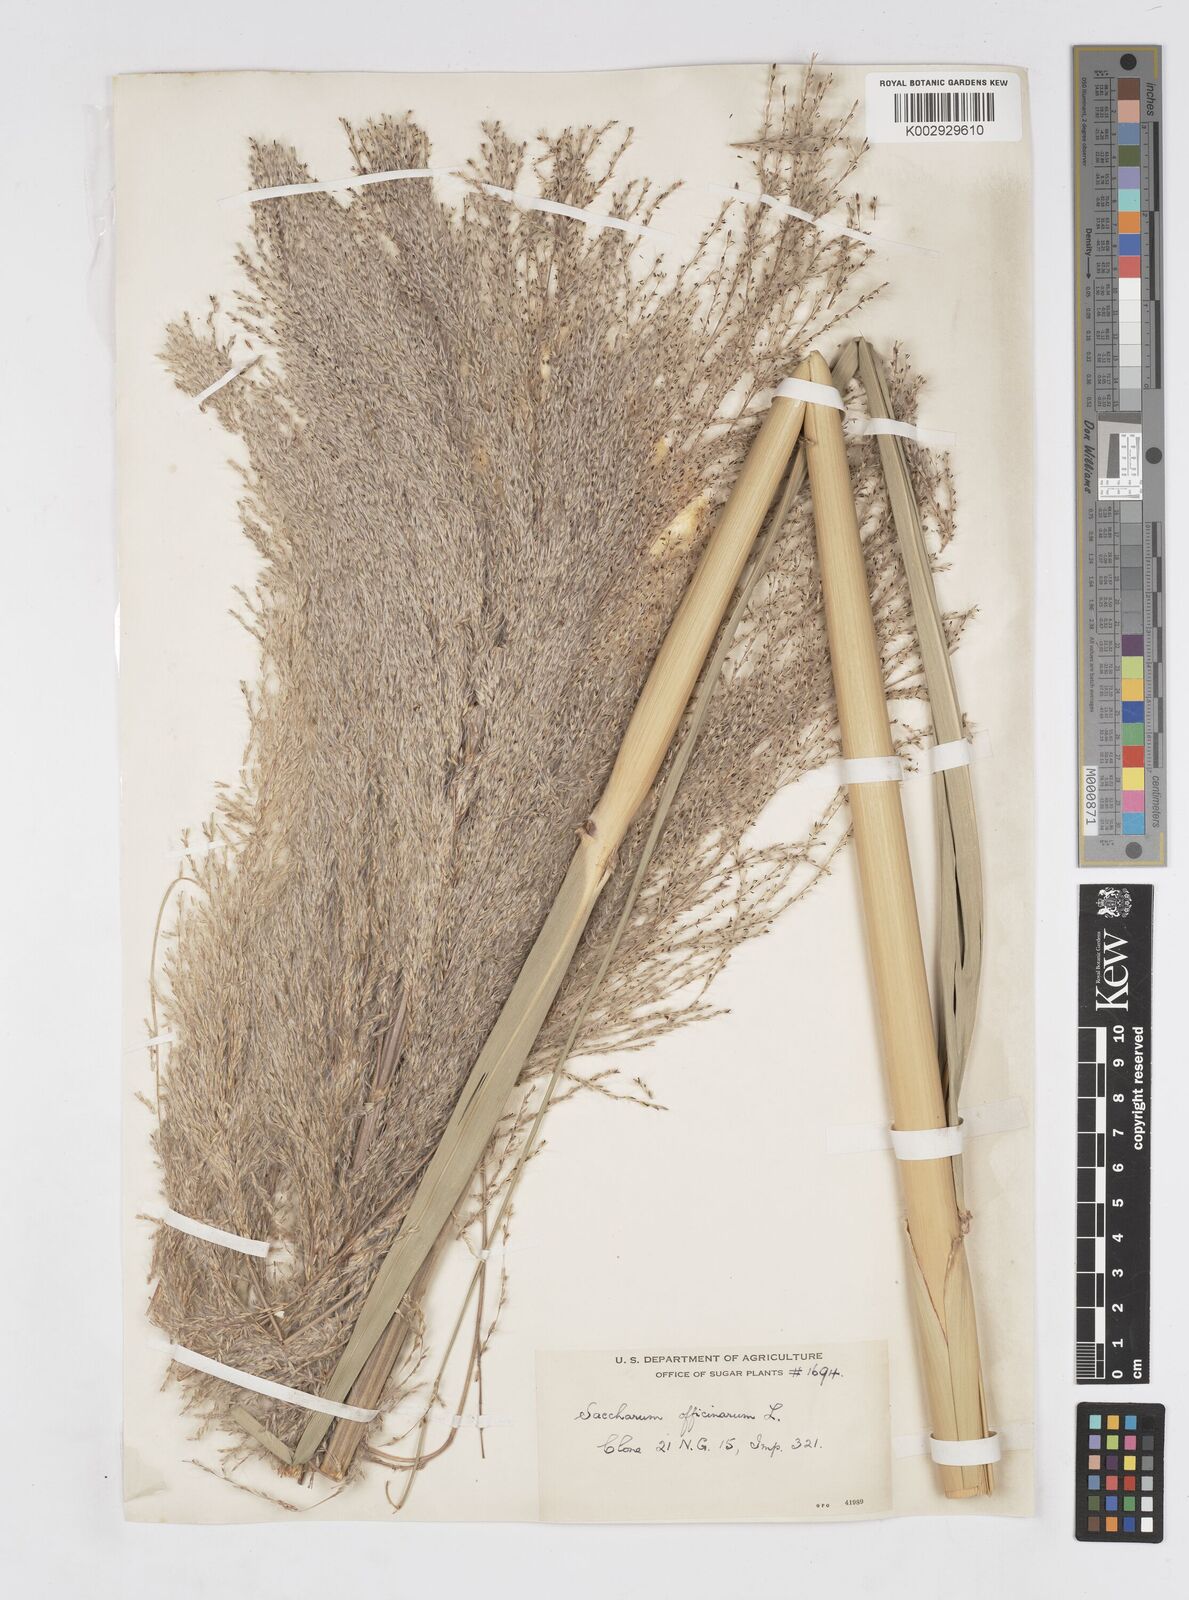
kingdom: Plantae
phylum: Tracheophyta
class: Liliopsida
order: Poales
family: Poaceae
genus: Saccharum
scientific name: Saccharum officinarum
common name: Sugarcane
